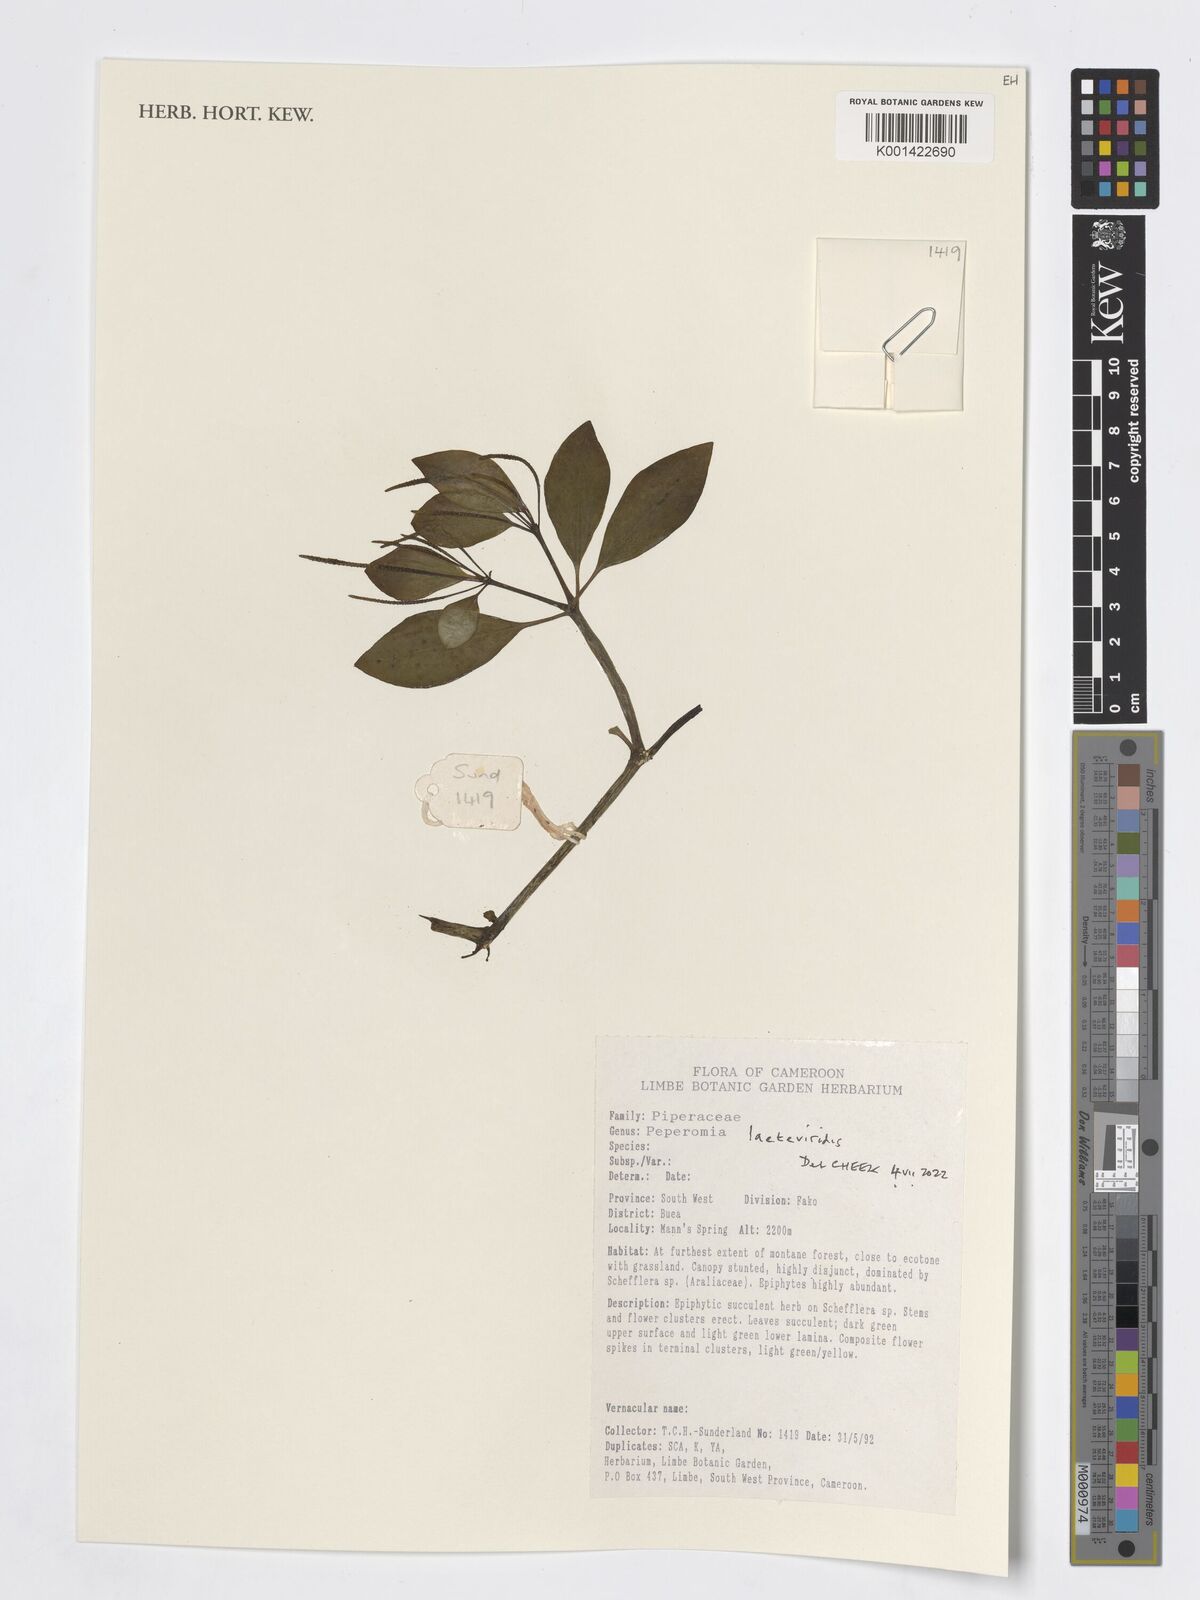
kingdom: Plantae
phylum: Tracheophyta
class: Magnoliopsida
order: Piperales
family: Piperaceae
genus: Peperomia
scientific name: Peperomia laeteviridis
